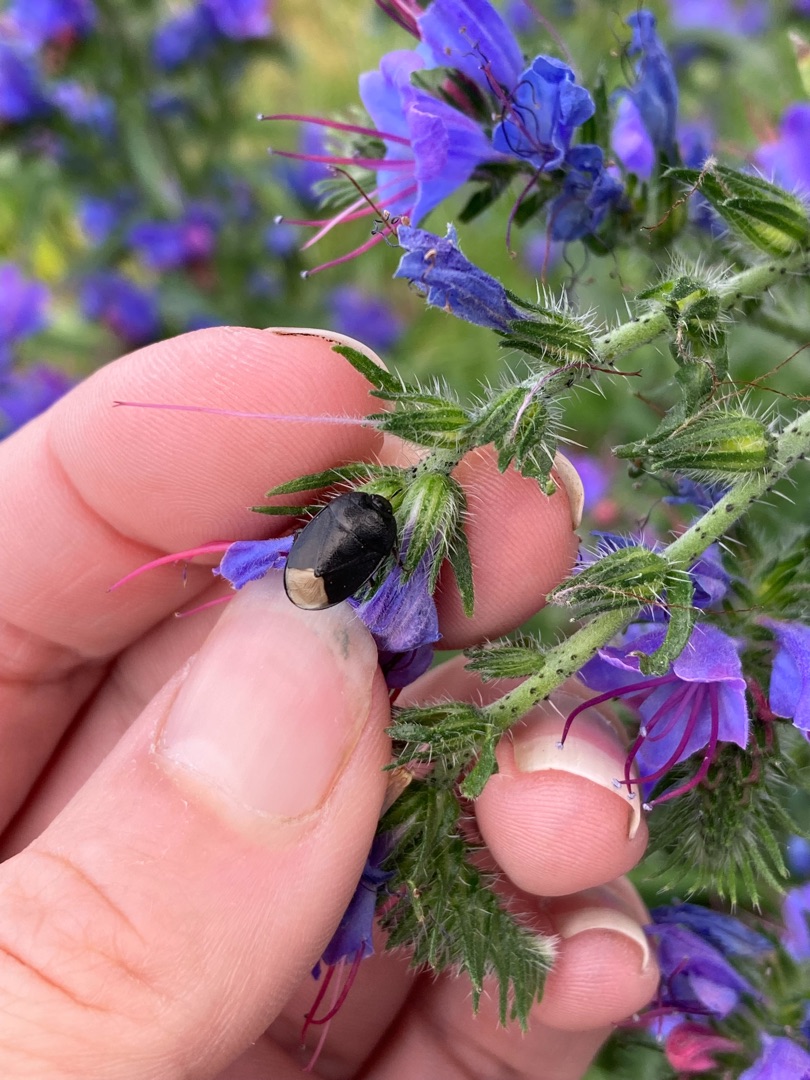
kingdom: Plantae
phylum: Tracheophyta
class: Magnoliopsida
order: Boraginales
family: Boraginaceae
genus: Echium
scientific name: Echium vulgare
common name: Slangehoved
